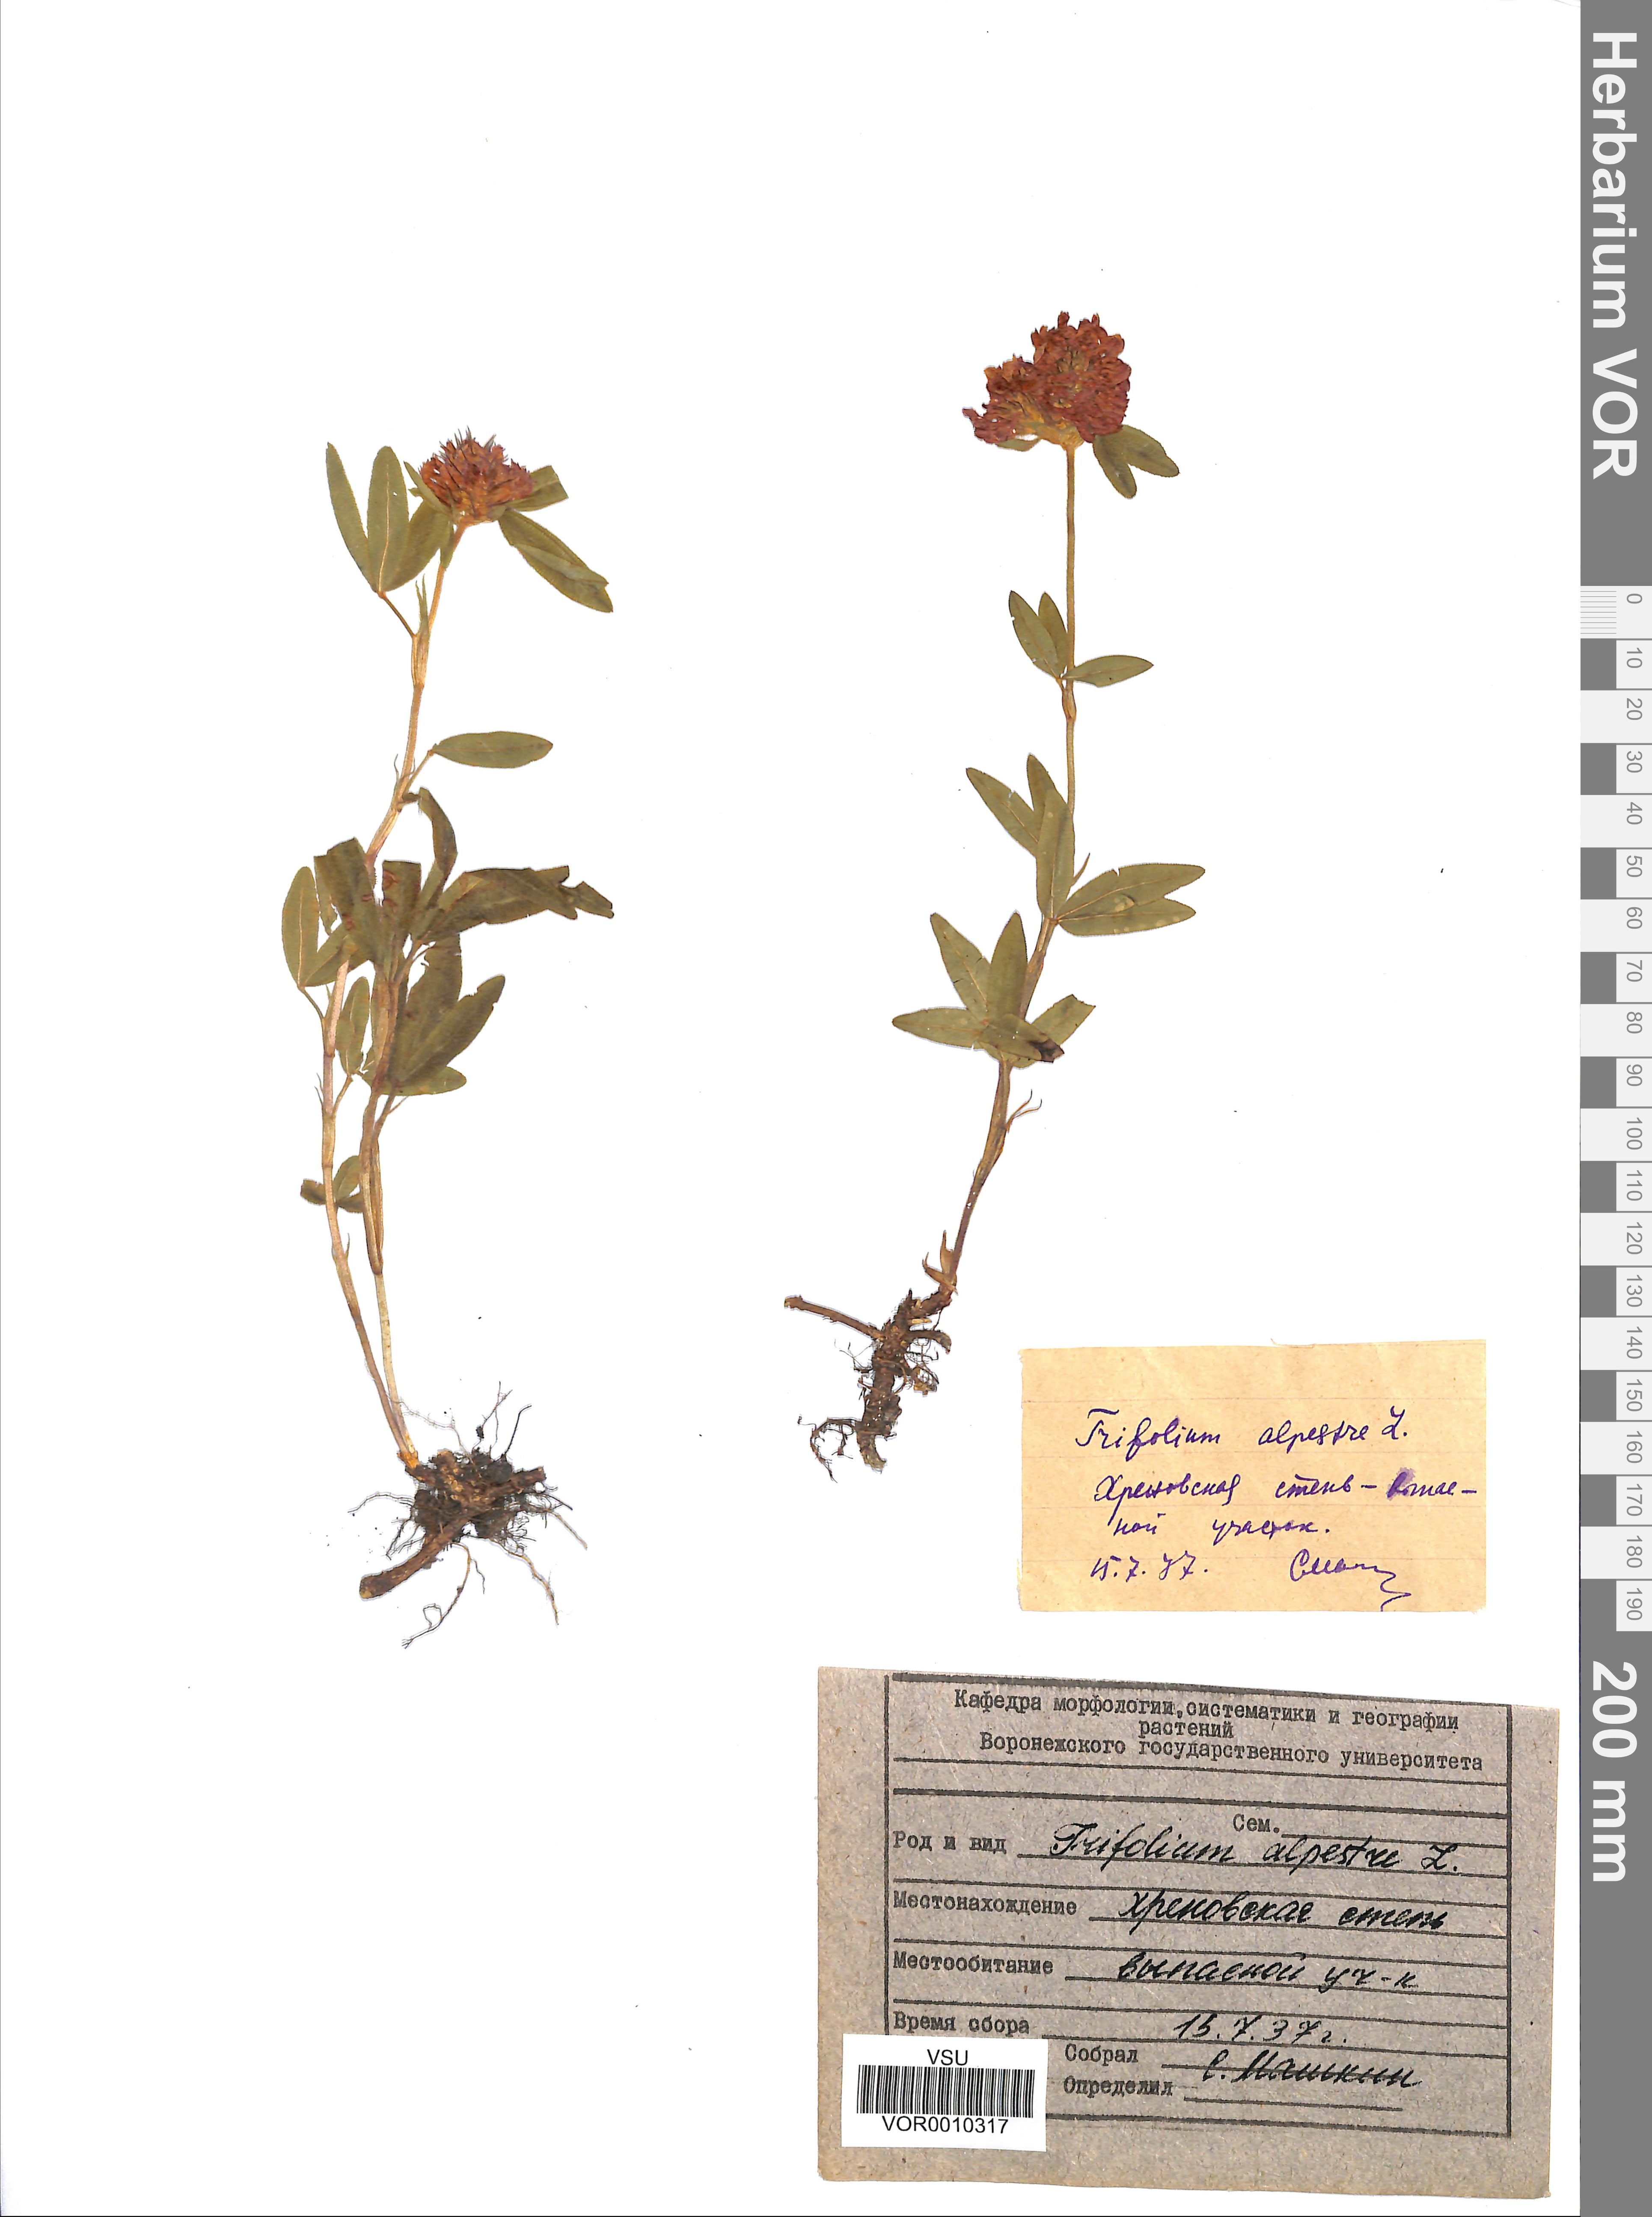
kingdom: Plantae
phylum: Tracheophyta
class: Magnoliopsida
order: Fabales
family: Fabaceae
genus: Trifolium
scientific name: Trifolium alpestre
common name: Owl-head clover
